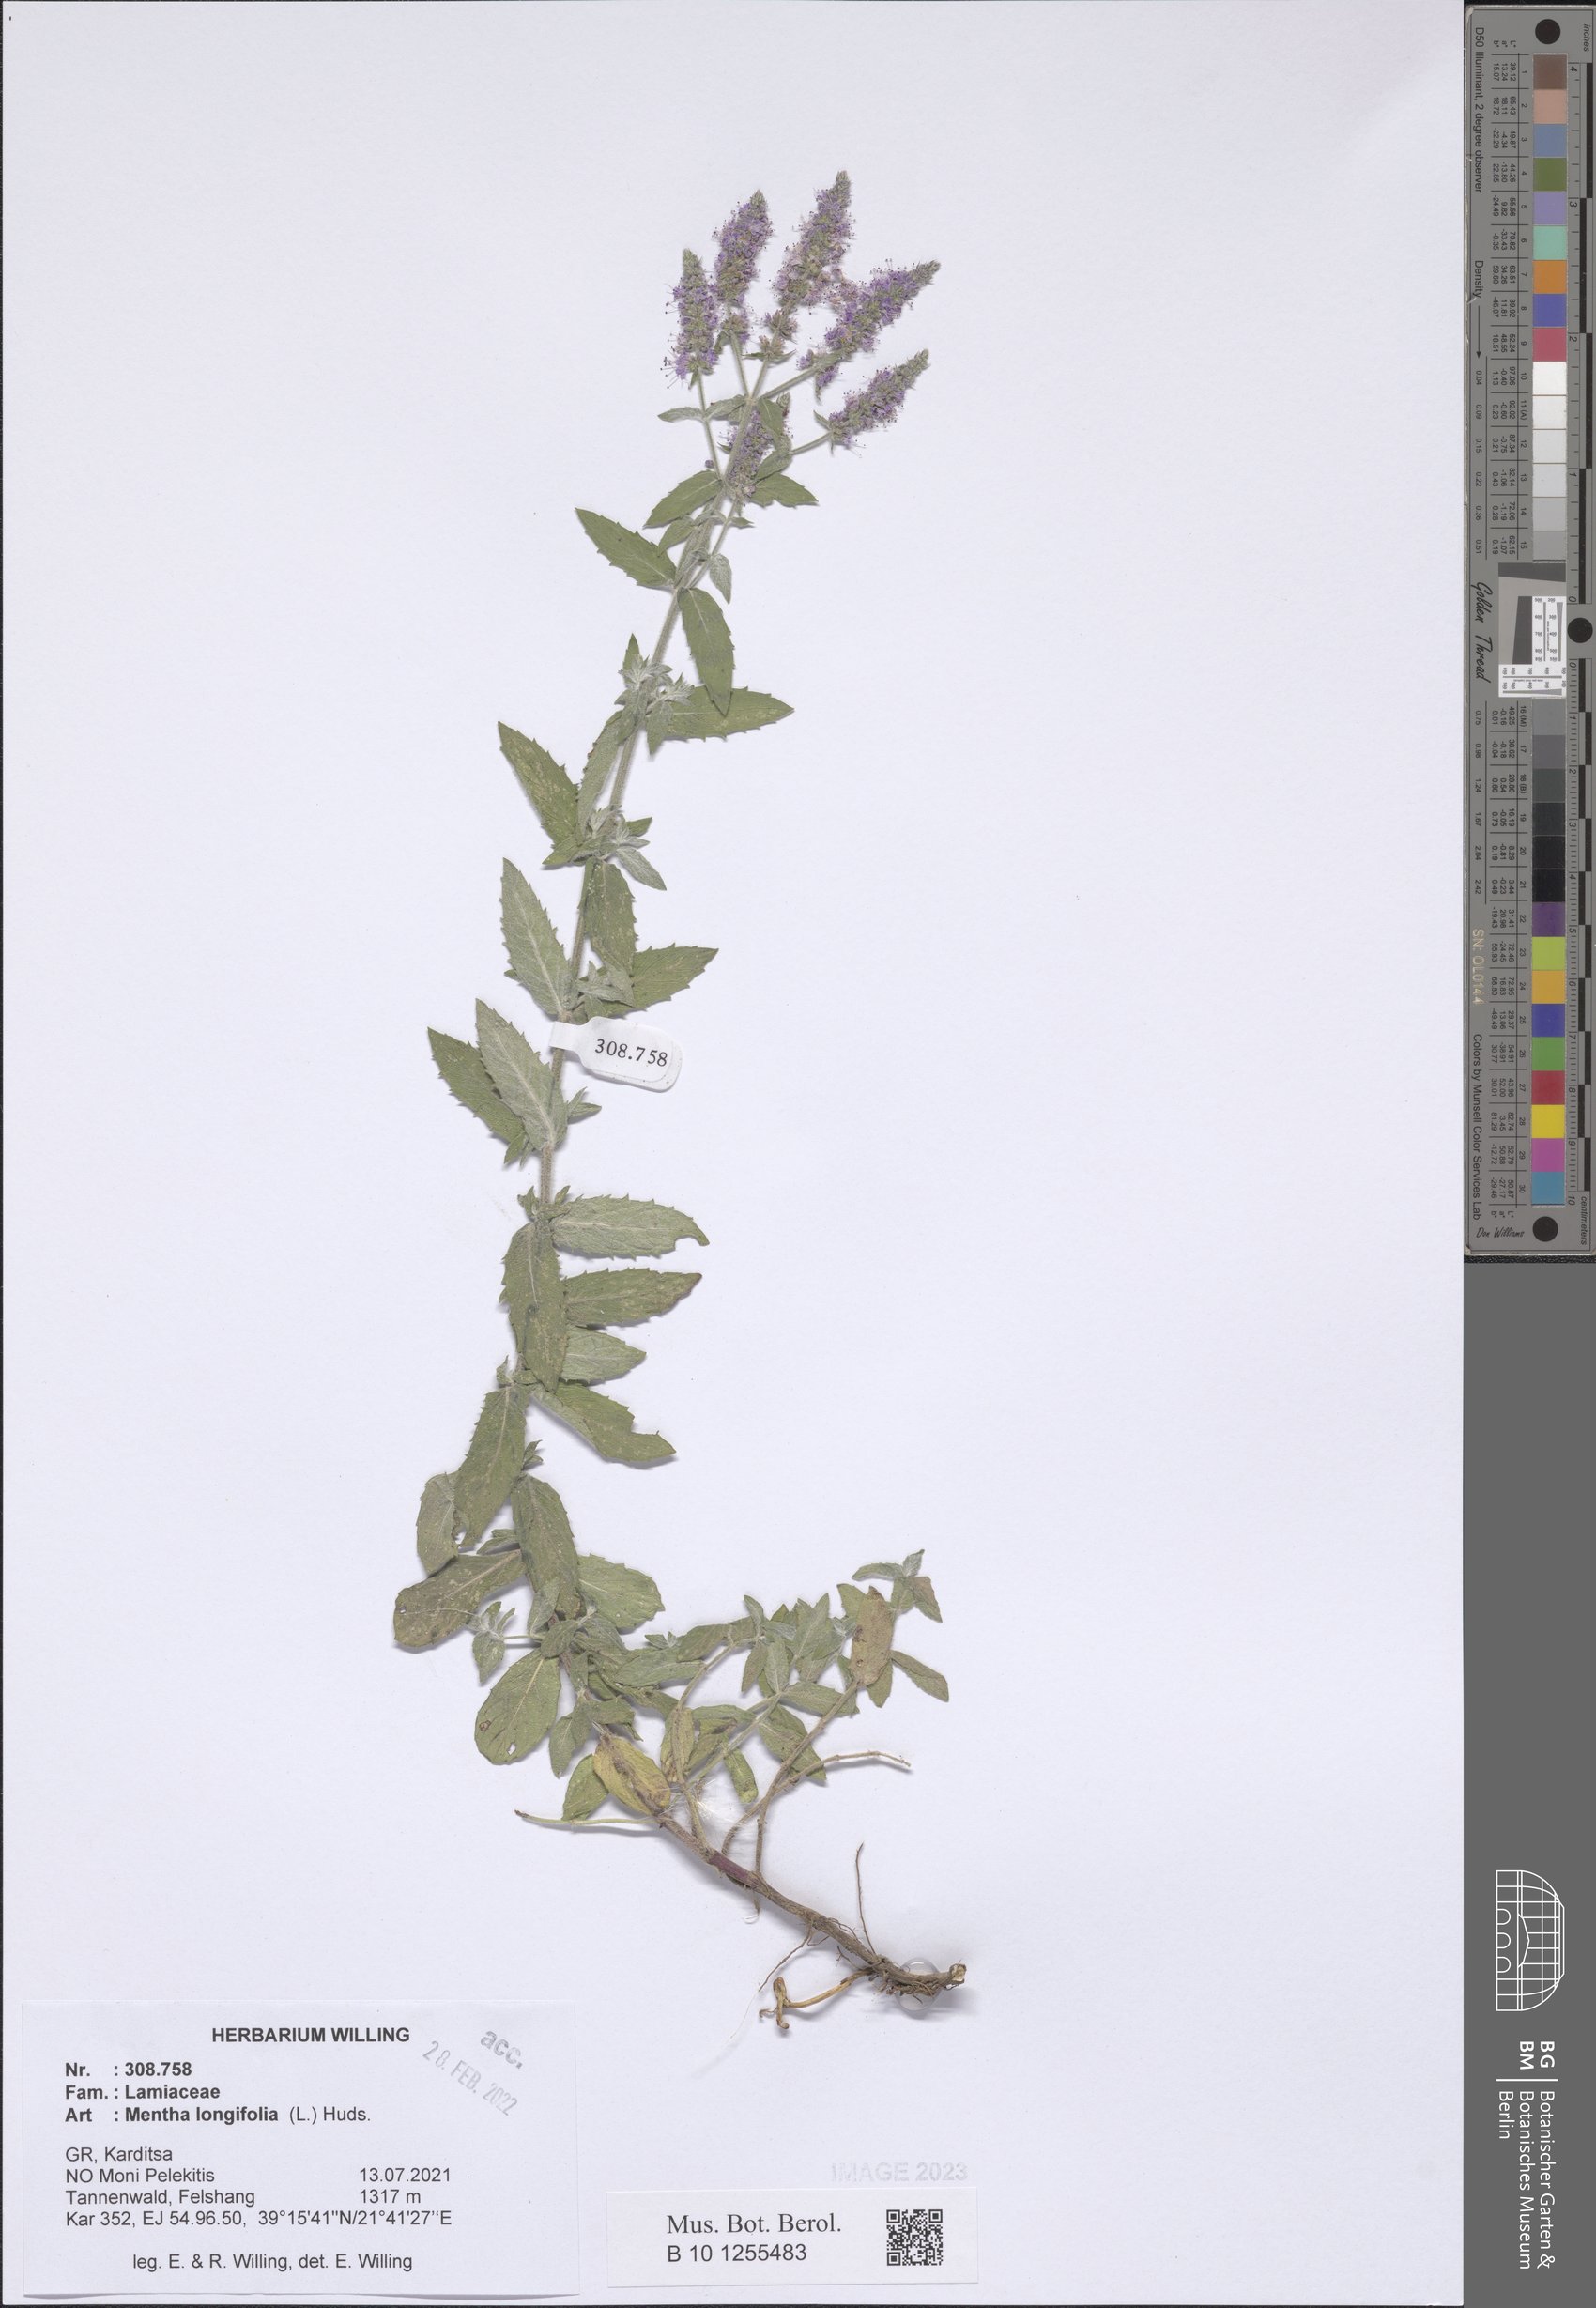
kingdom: Plantae
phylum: Tracheophyta
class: Magnoliopsida
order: Lamiales
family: Lamiaceae
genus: Mentha
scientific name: Mentha longifolia
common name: Horse mint
